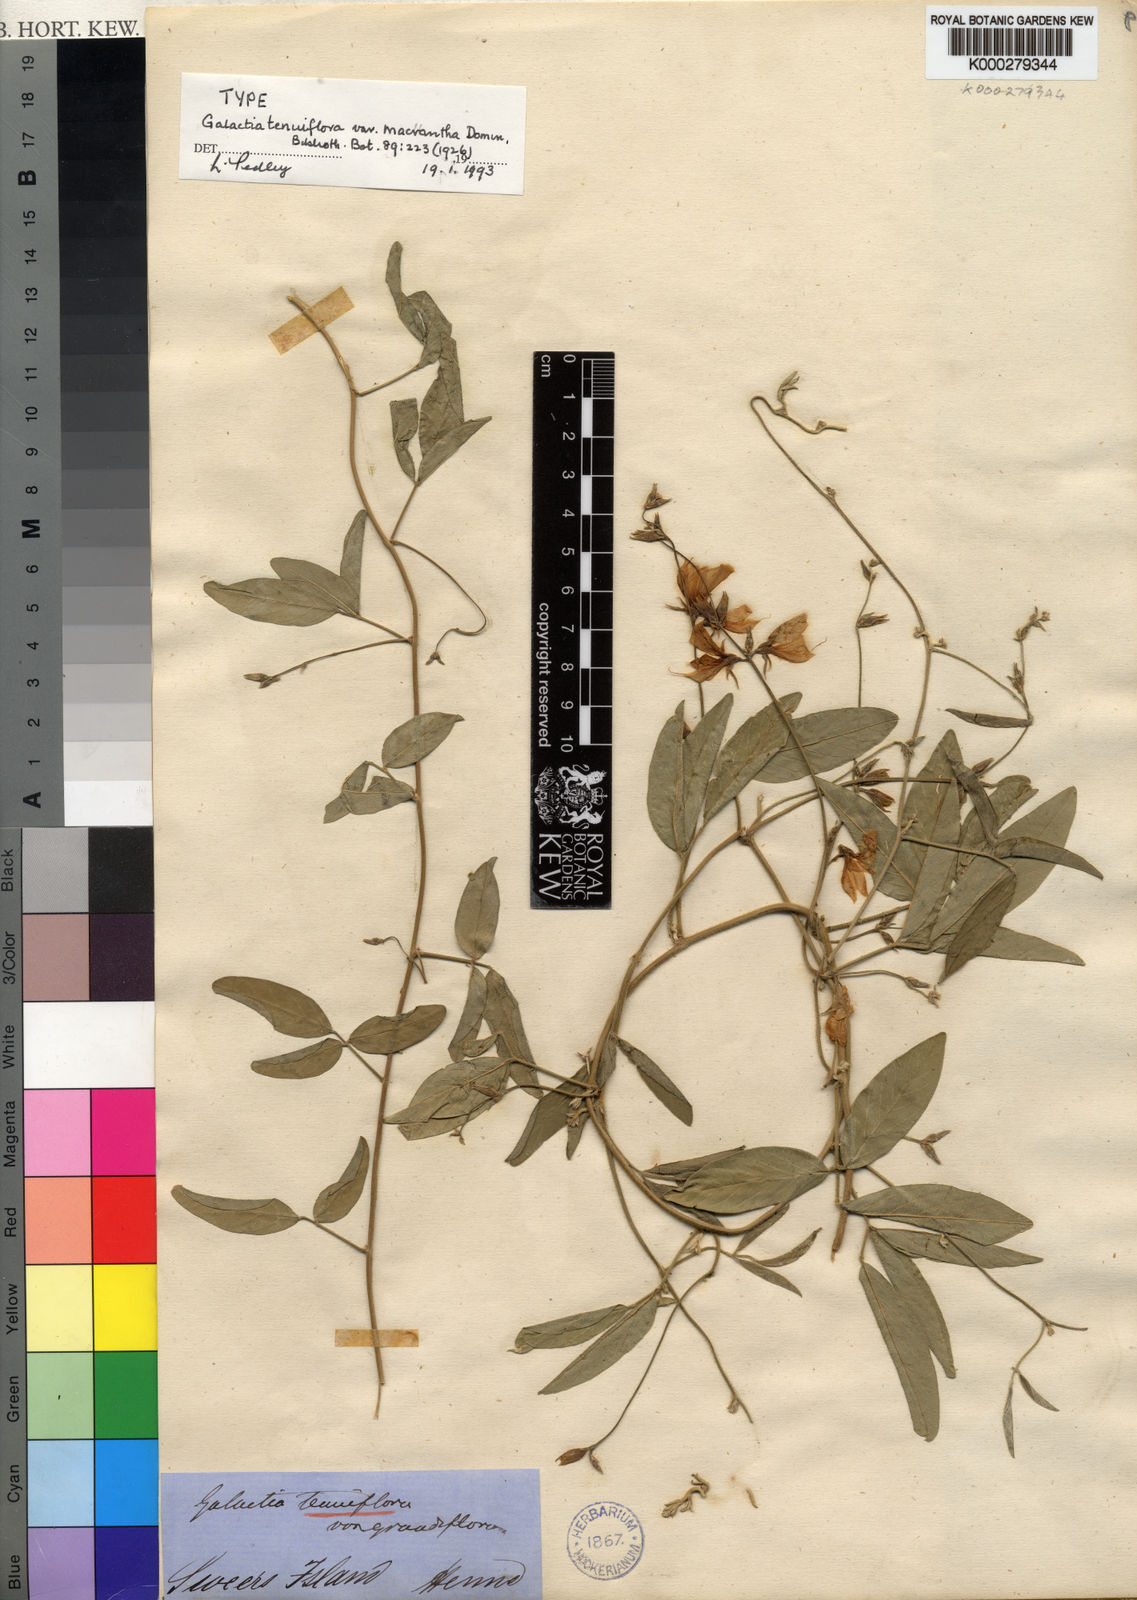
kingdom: Plantae
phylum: Tracheophyta
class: Magnoliopsida
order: Fabales
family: Fabaceae
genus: Galactia
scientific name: Galactia striata
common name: Florida hammock milkpea
